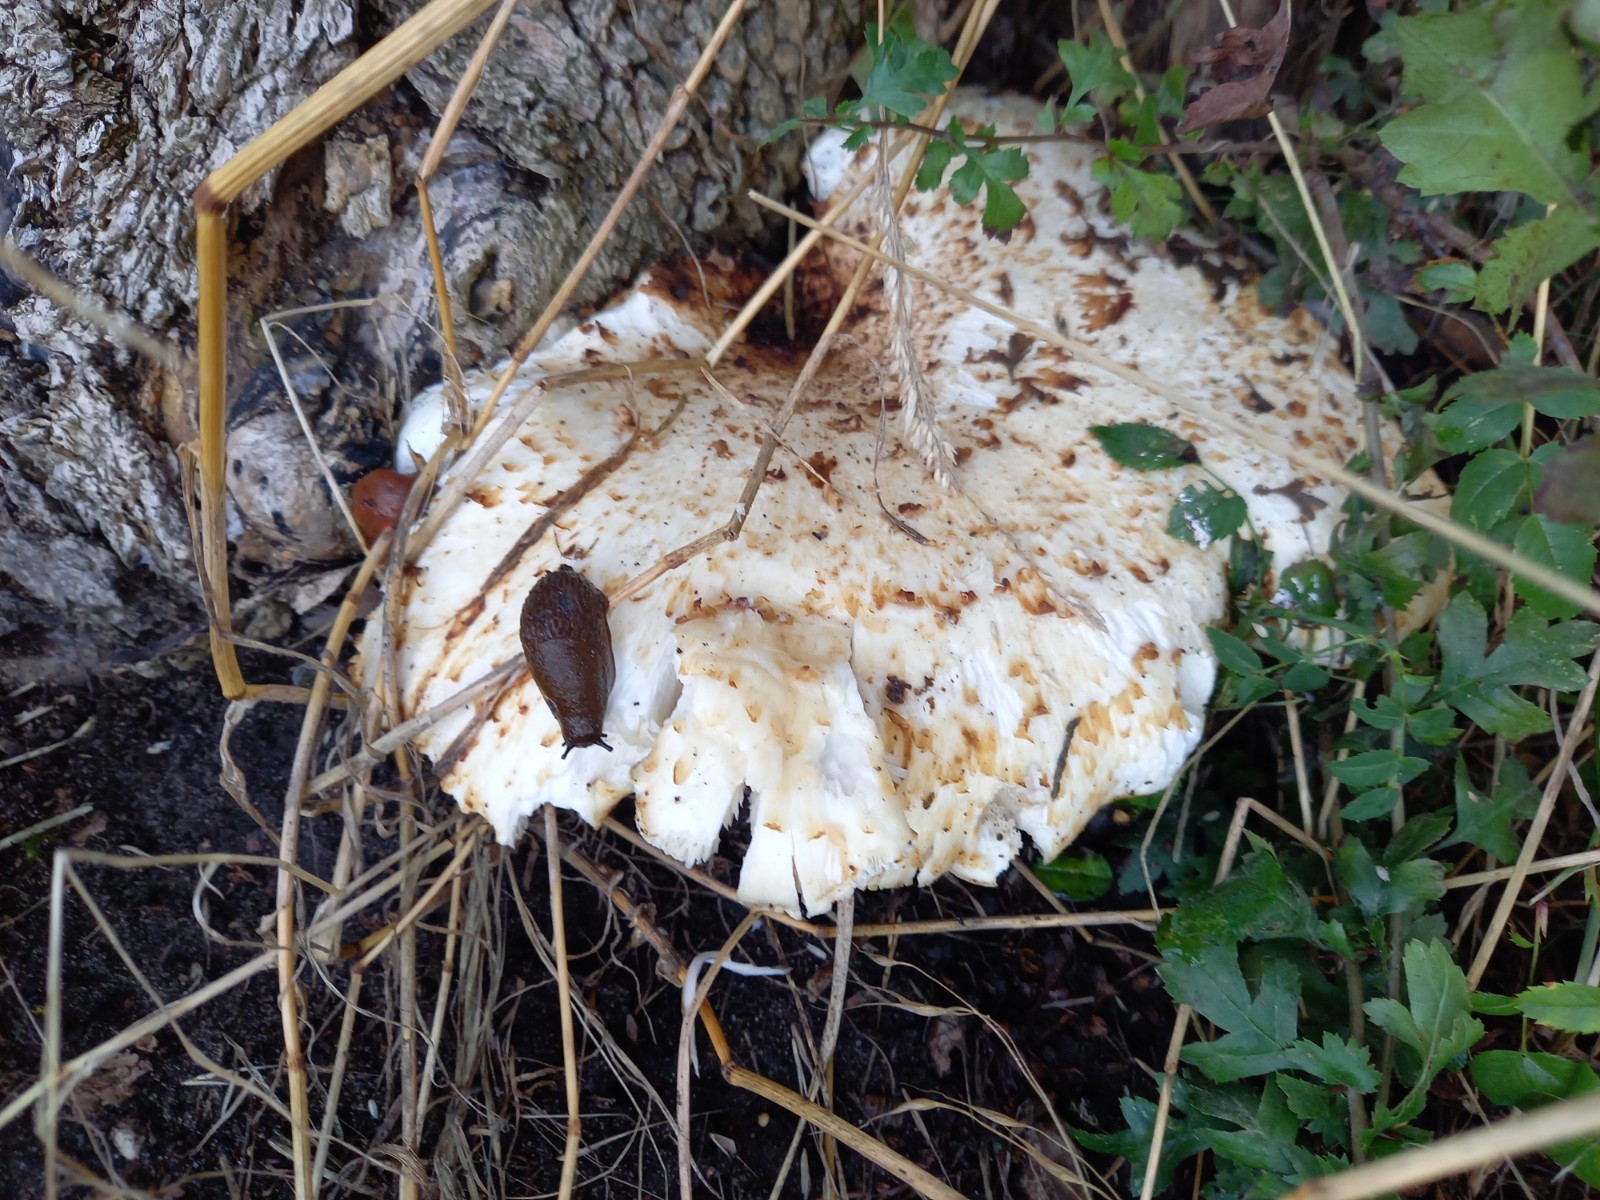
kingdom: Fungi
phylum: Basidiomycota
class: Agaricomycetes
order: Polyporales
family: Polyporaceae
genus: Cerioporus
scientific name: Cerioporus squamosus
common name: skællet stilkporesvamp
